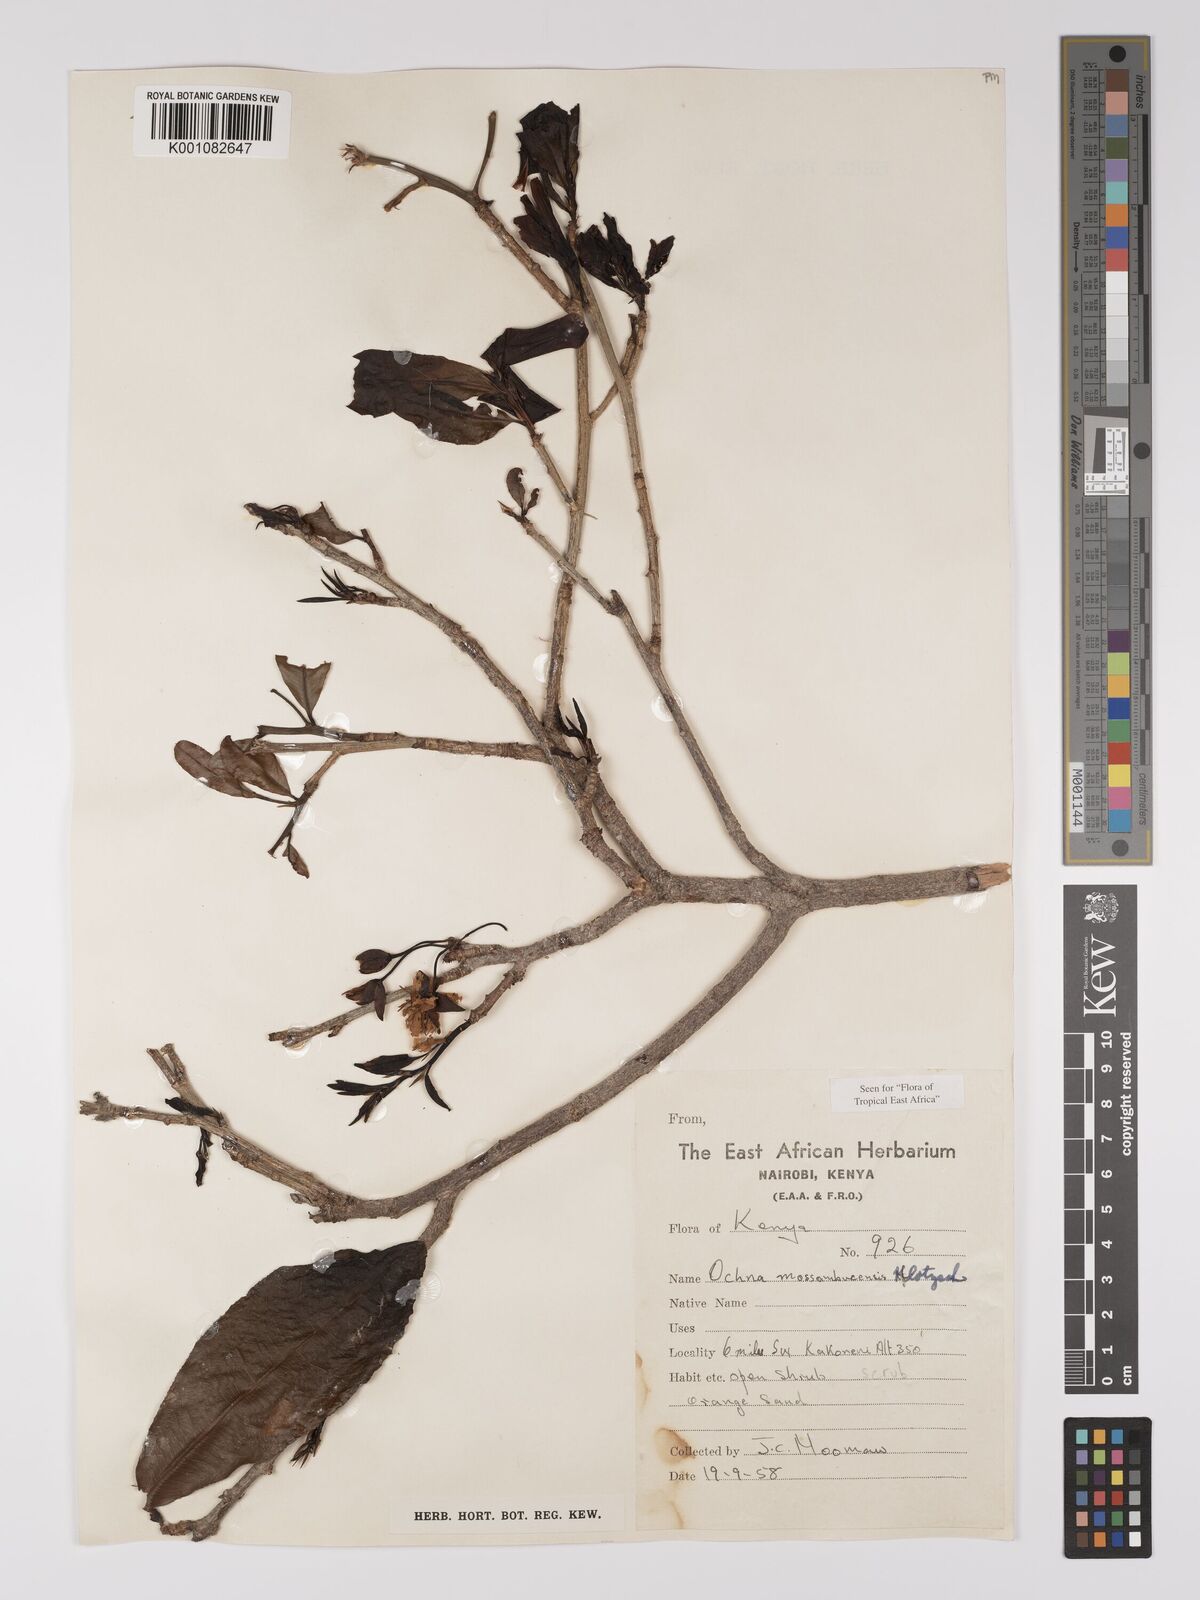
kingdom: Plantae
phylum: Tracheophyta
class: Magnoliopsida
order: Malpighiales
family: Ochnaceae
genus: Ochna
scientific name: Ochna atropurpurea
